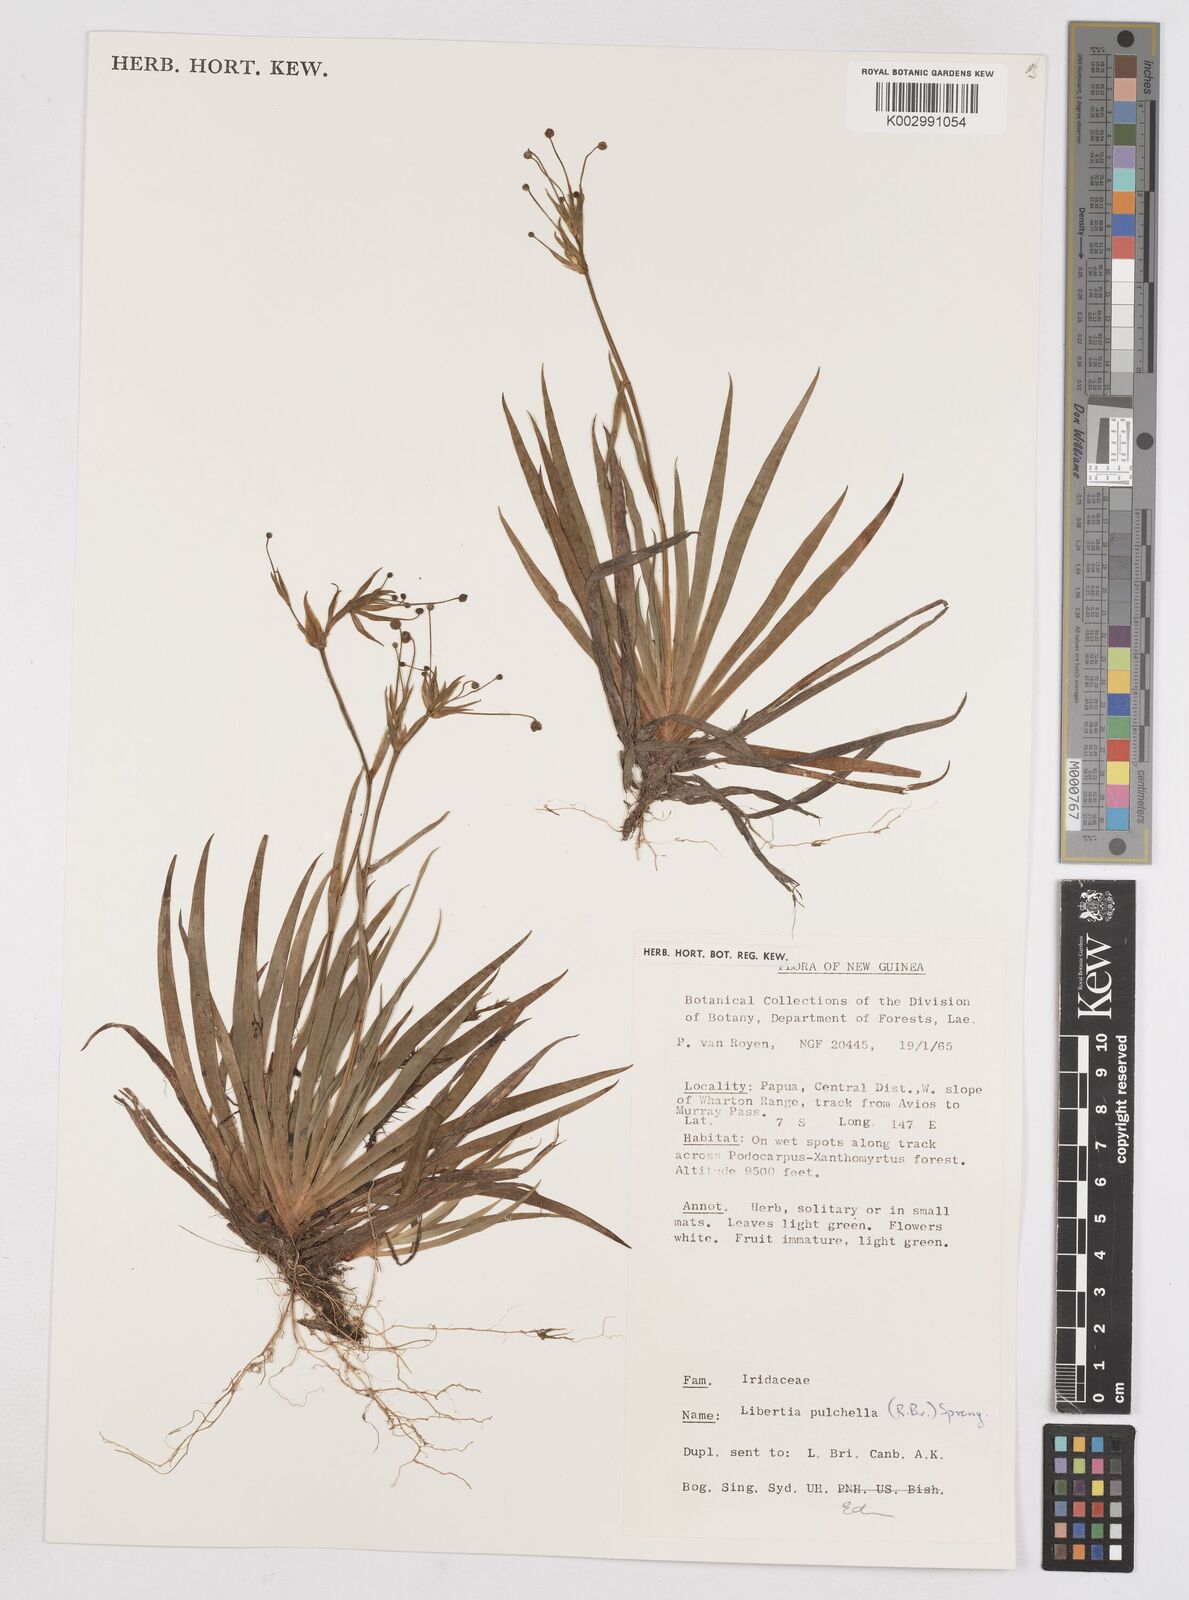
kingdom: Plantae
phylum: Tracheophyta
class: Liliopsida
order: Asparagales
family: Iridaceae
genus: Libertia
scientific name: Libertia pulchella
